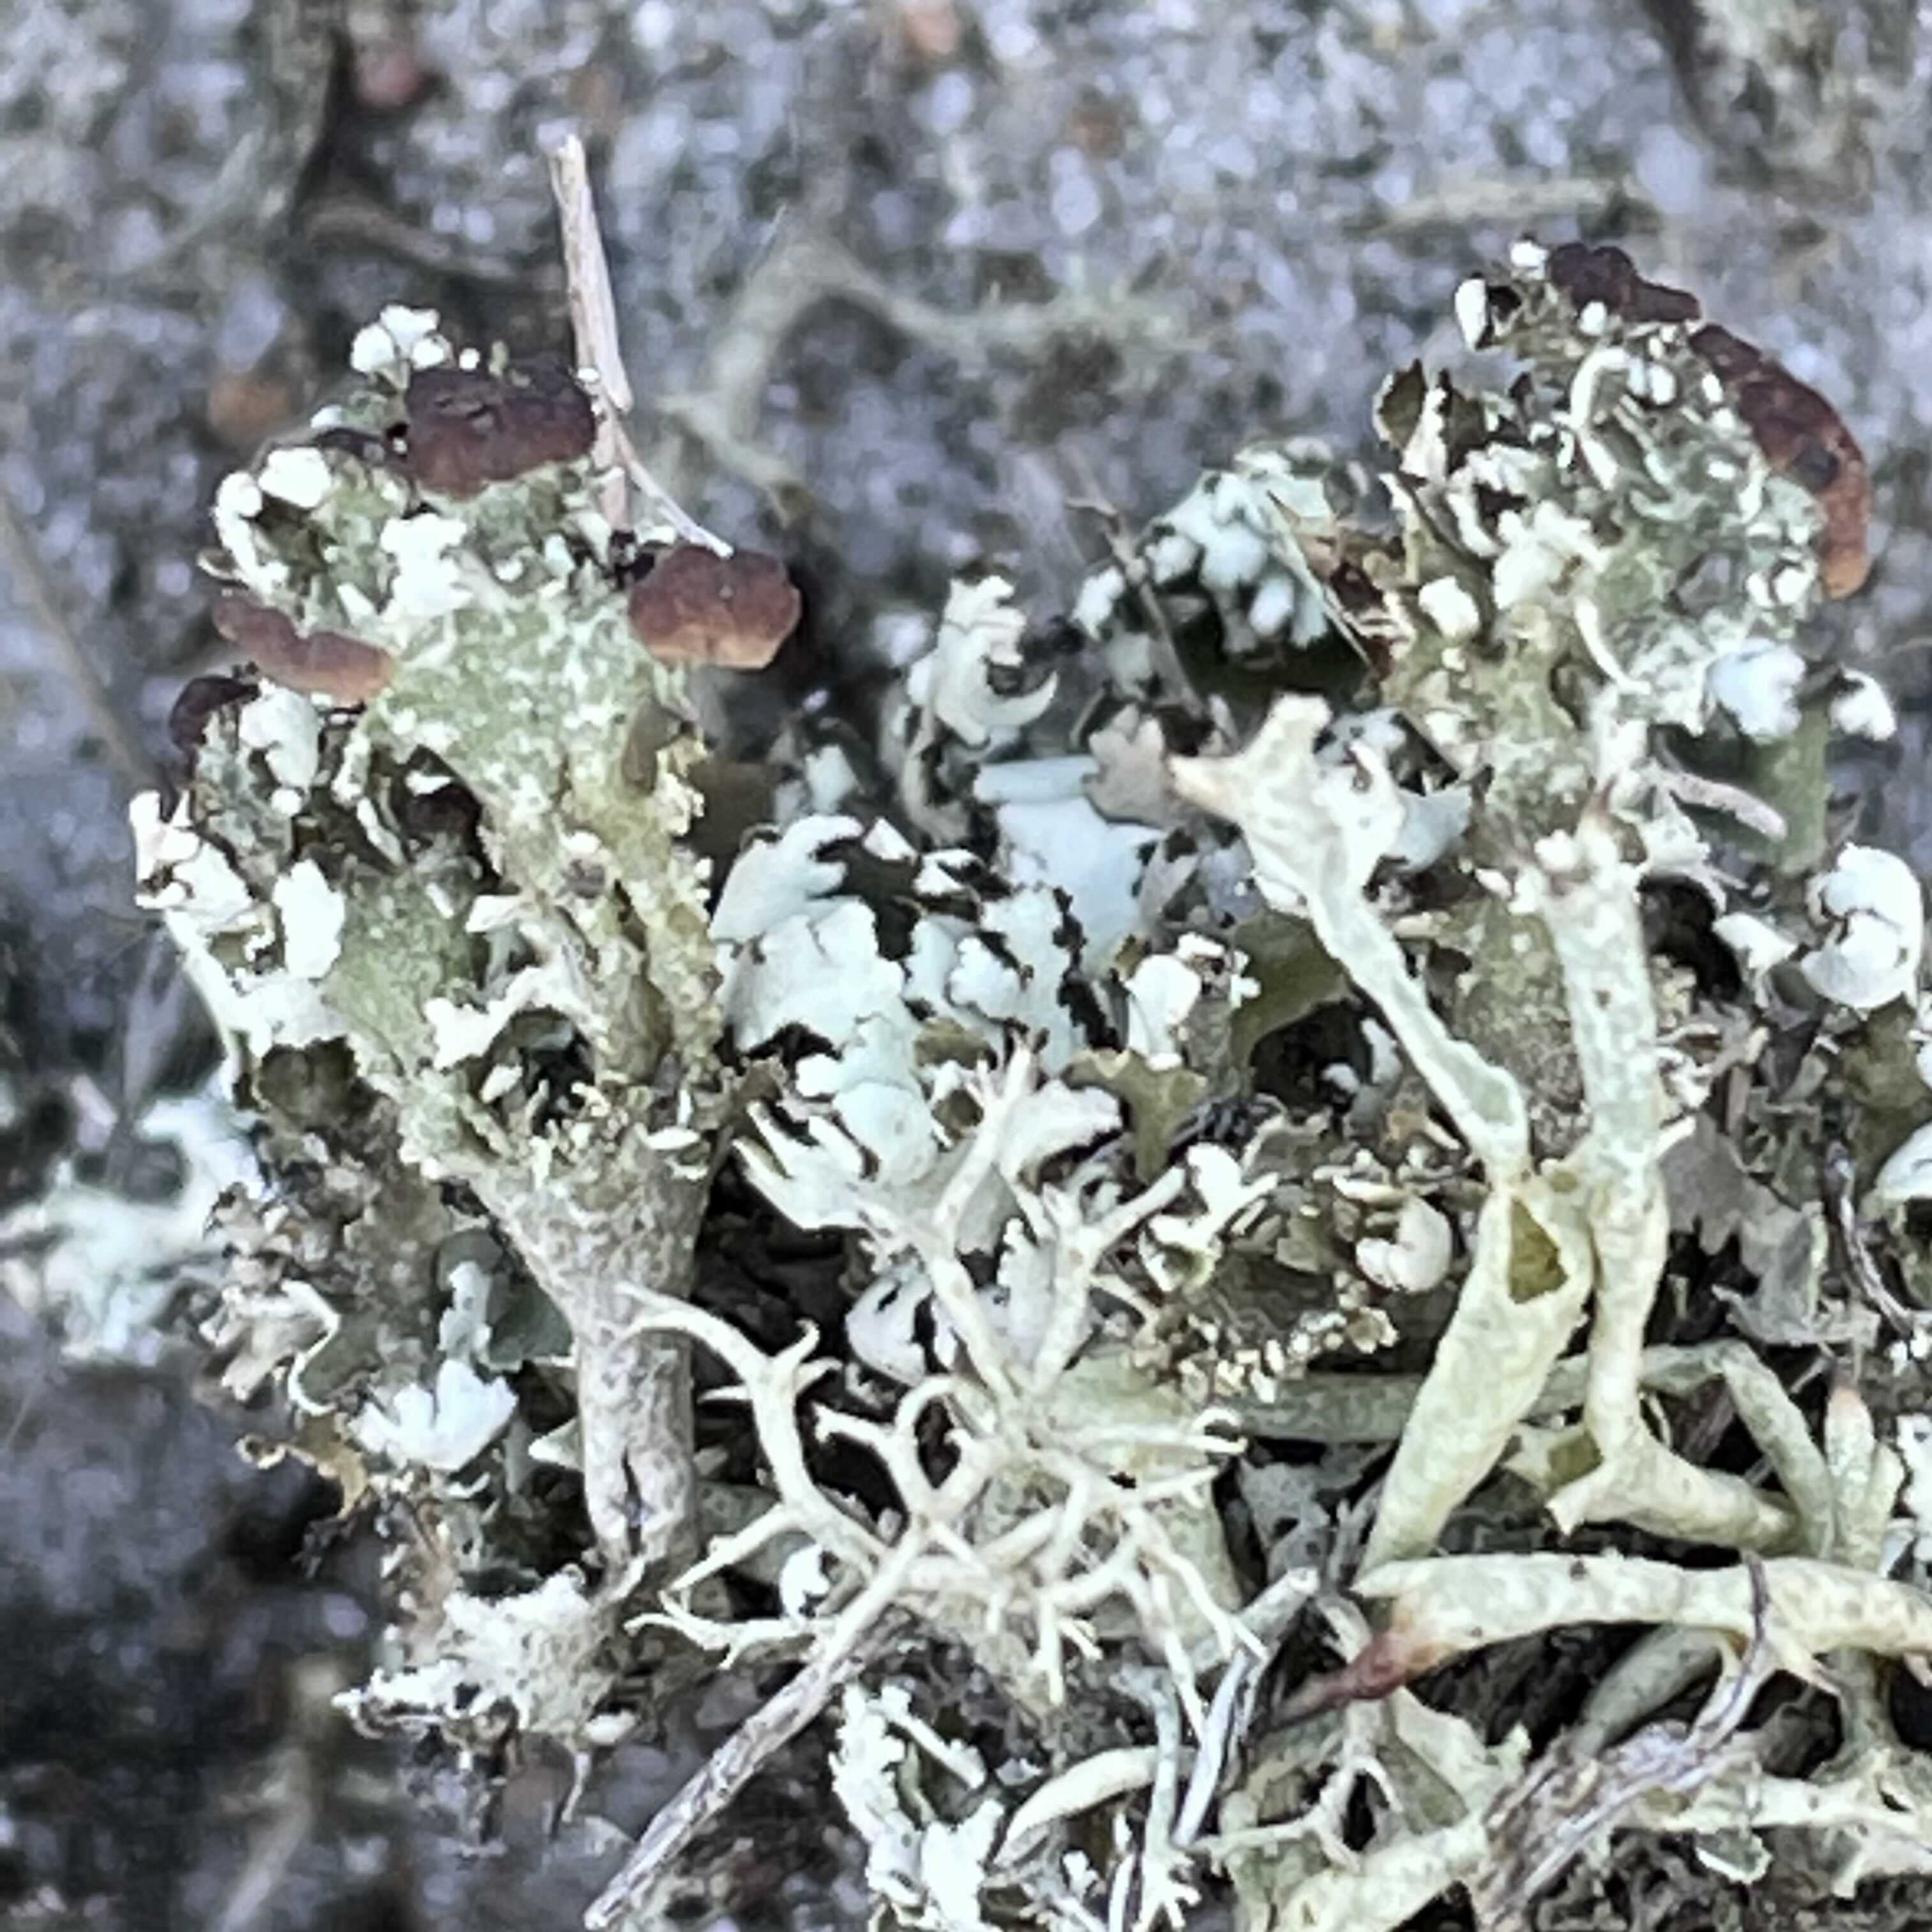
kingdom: Fungi
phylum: Ascomycota
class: Lecanoromycetes
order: Lecanorales
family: Cladoniaceae
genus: Cladonia
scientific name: Cladonia foliacea
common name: fliget bægerlav
